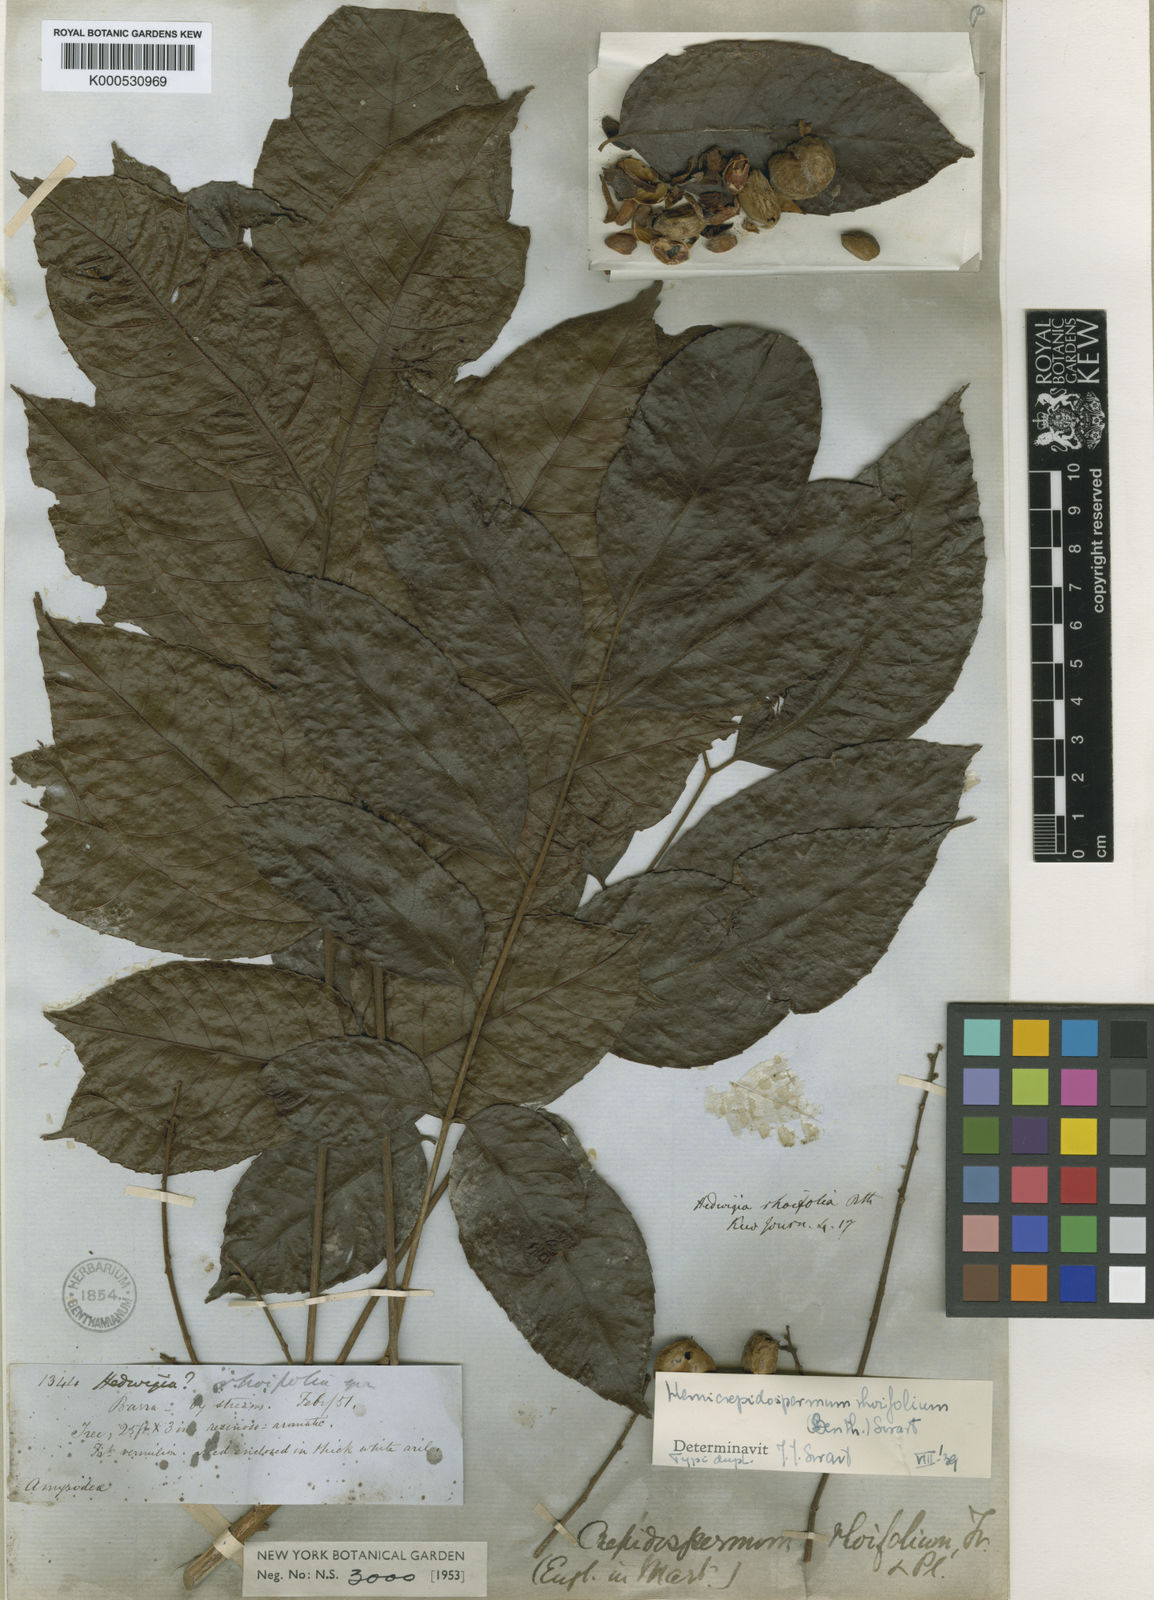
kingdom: Plantae
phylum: Tracheophyta
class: Magnoliopsida
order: Sapindales
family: Burseraceae
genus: Crepidospermum
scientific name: Crepidospermum rhoifolium
